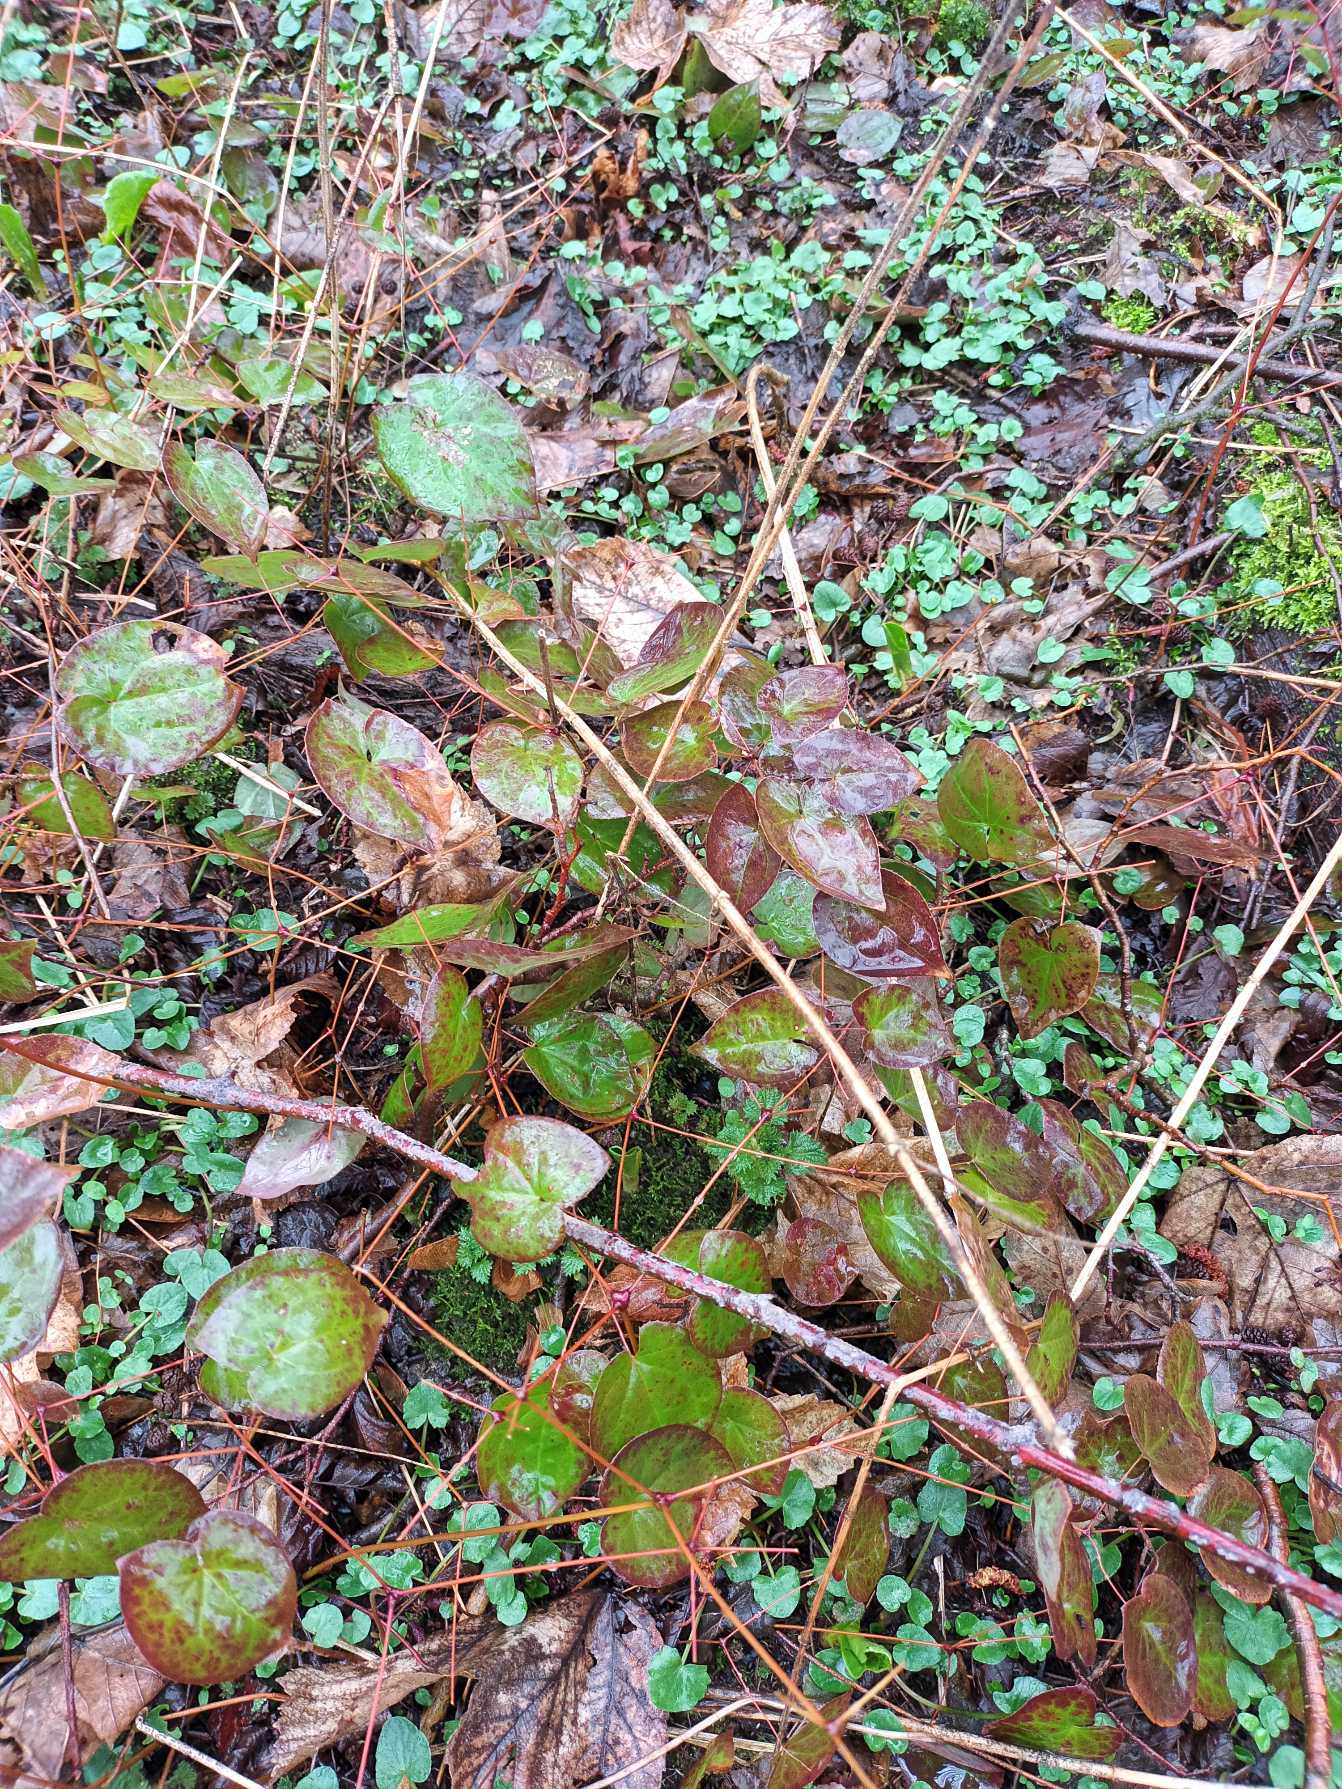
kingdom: Plantae
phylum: Tracheophyta
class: Magnoliopsida
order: Ranunculales
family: Berberidaceae
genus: Epimedium
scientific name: Epimedium versicolor
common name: Svovlgul bispehue
